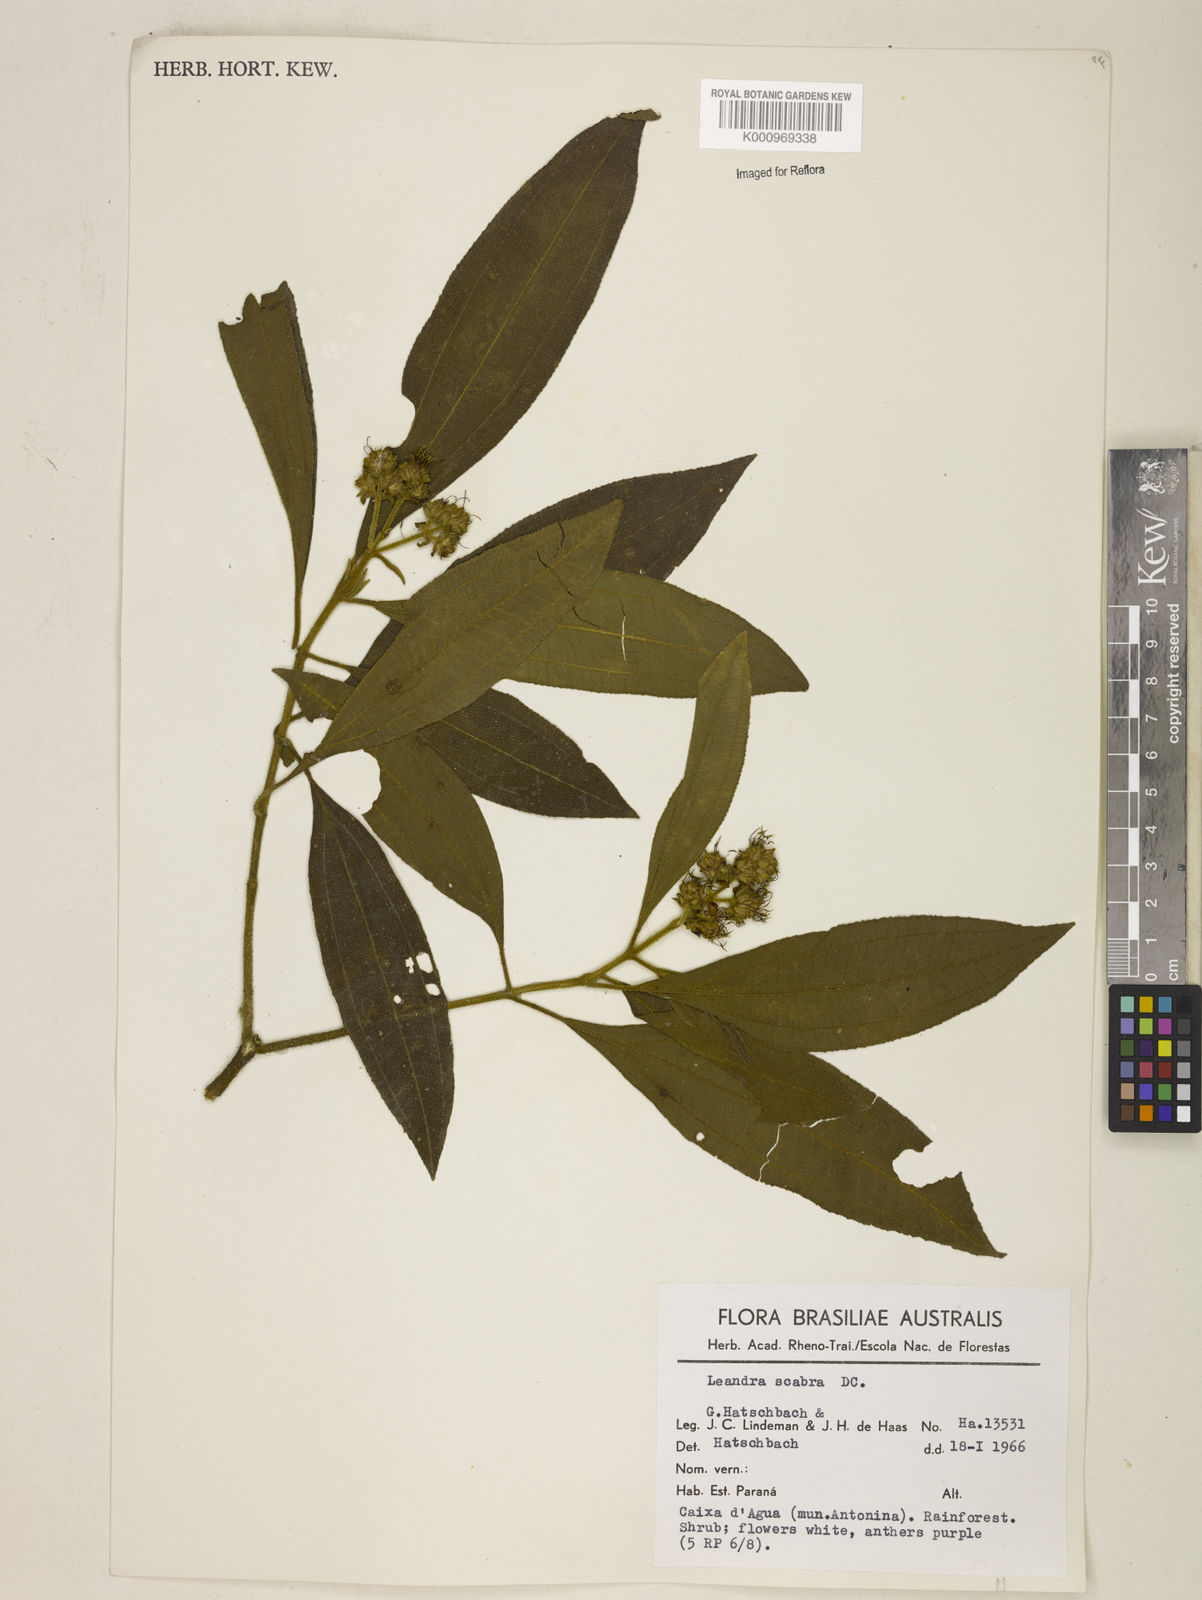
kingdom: Plantae
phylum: Tracheophyta
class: Magnoliopsida
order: Myrtales
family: Melastomataceae
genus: Miconia
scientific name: Miconia melastomoides
